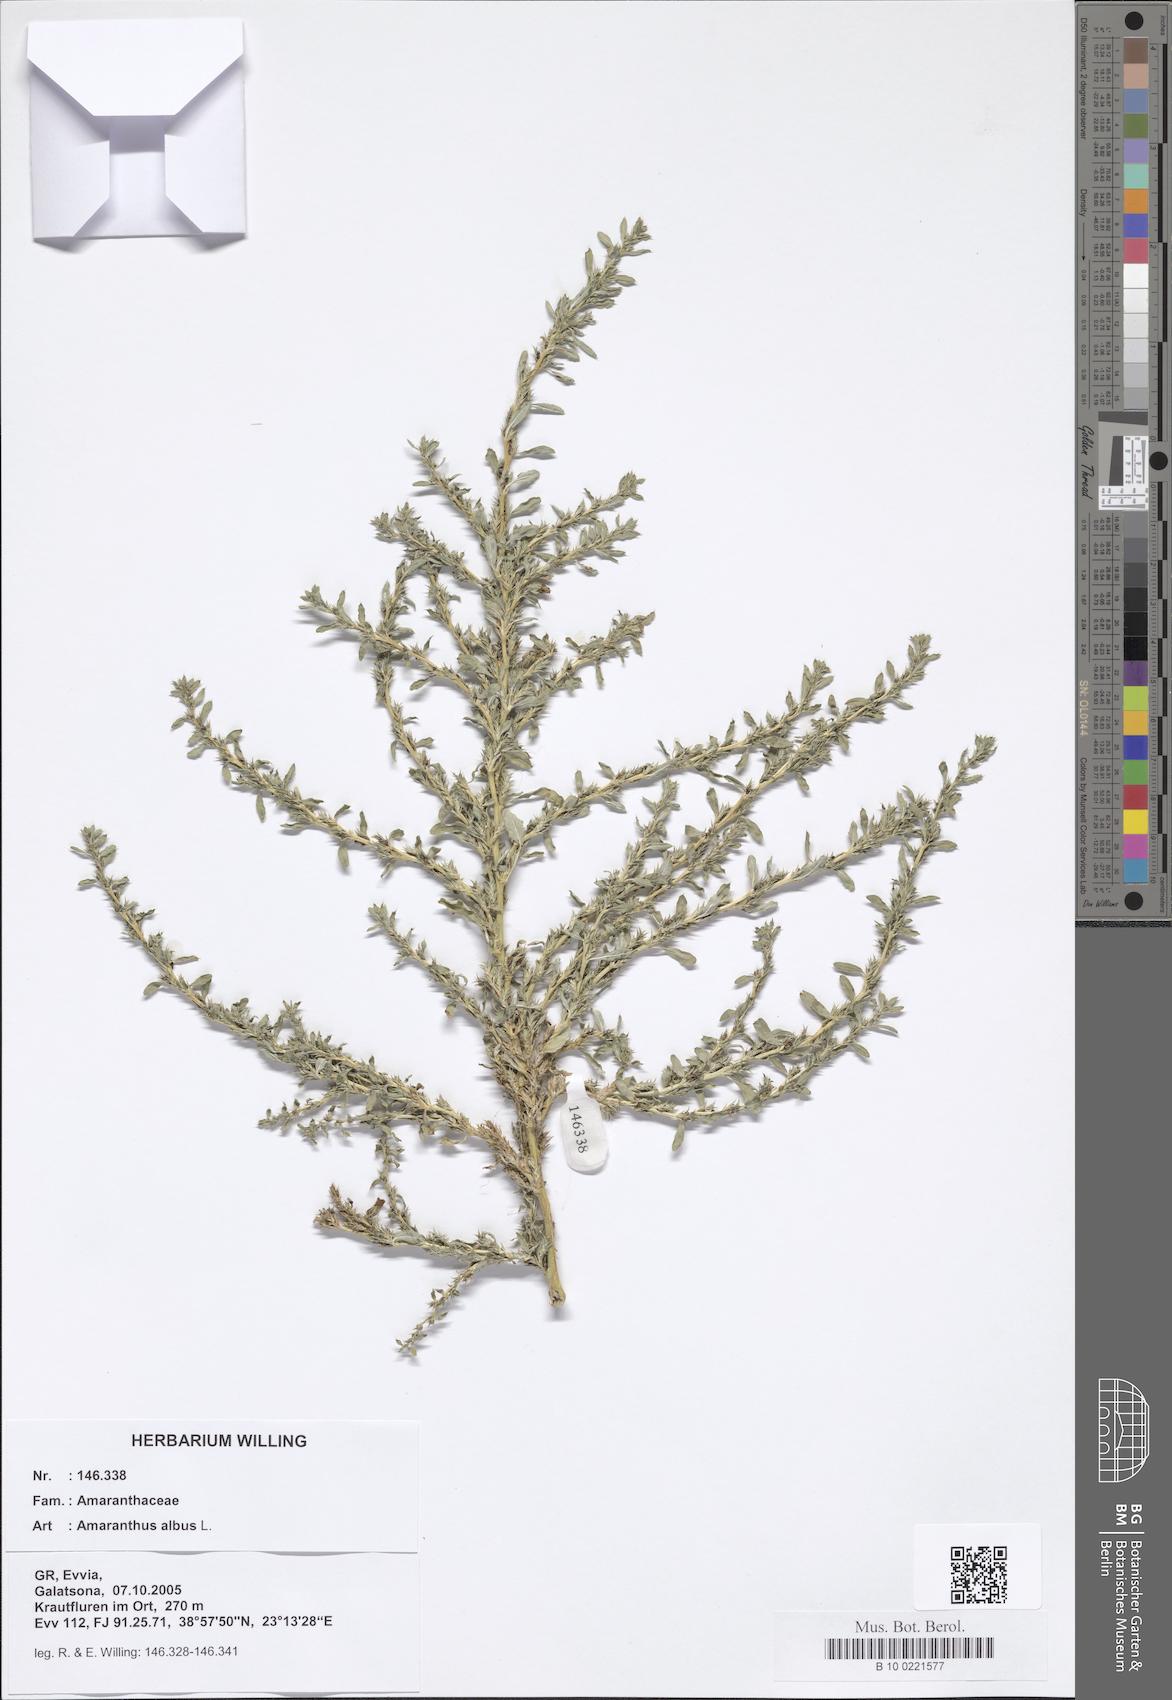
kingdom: Plantae
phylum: Tracheophyta
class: Magnoliopsida
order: Caryophyllales
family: Amaranthaceae
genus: Amaranthus
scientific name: Amaranthus albus
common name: White pigweed
